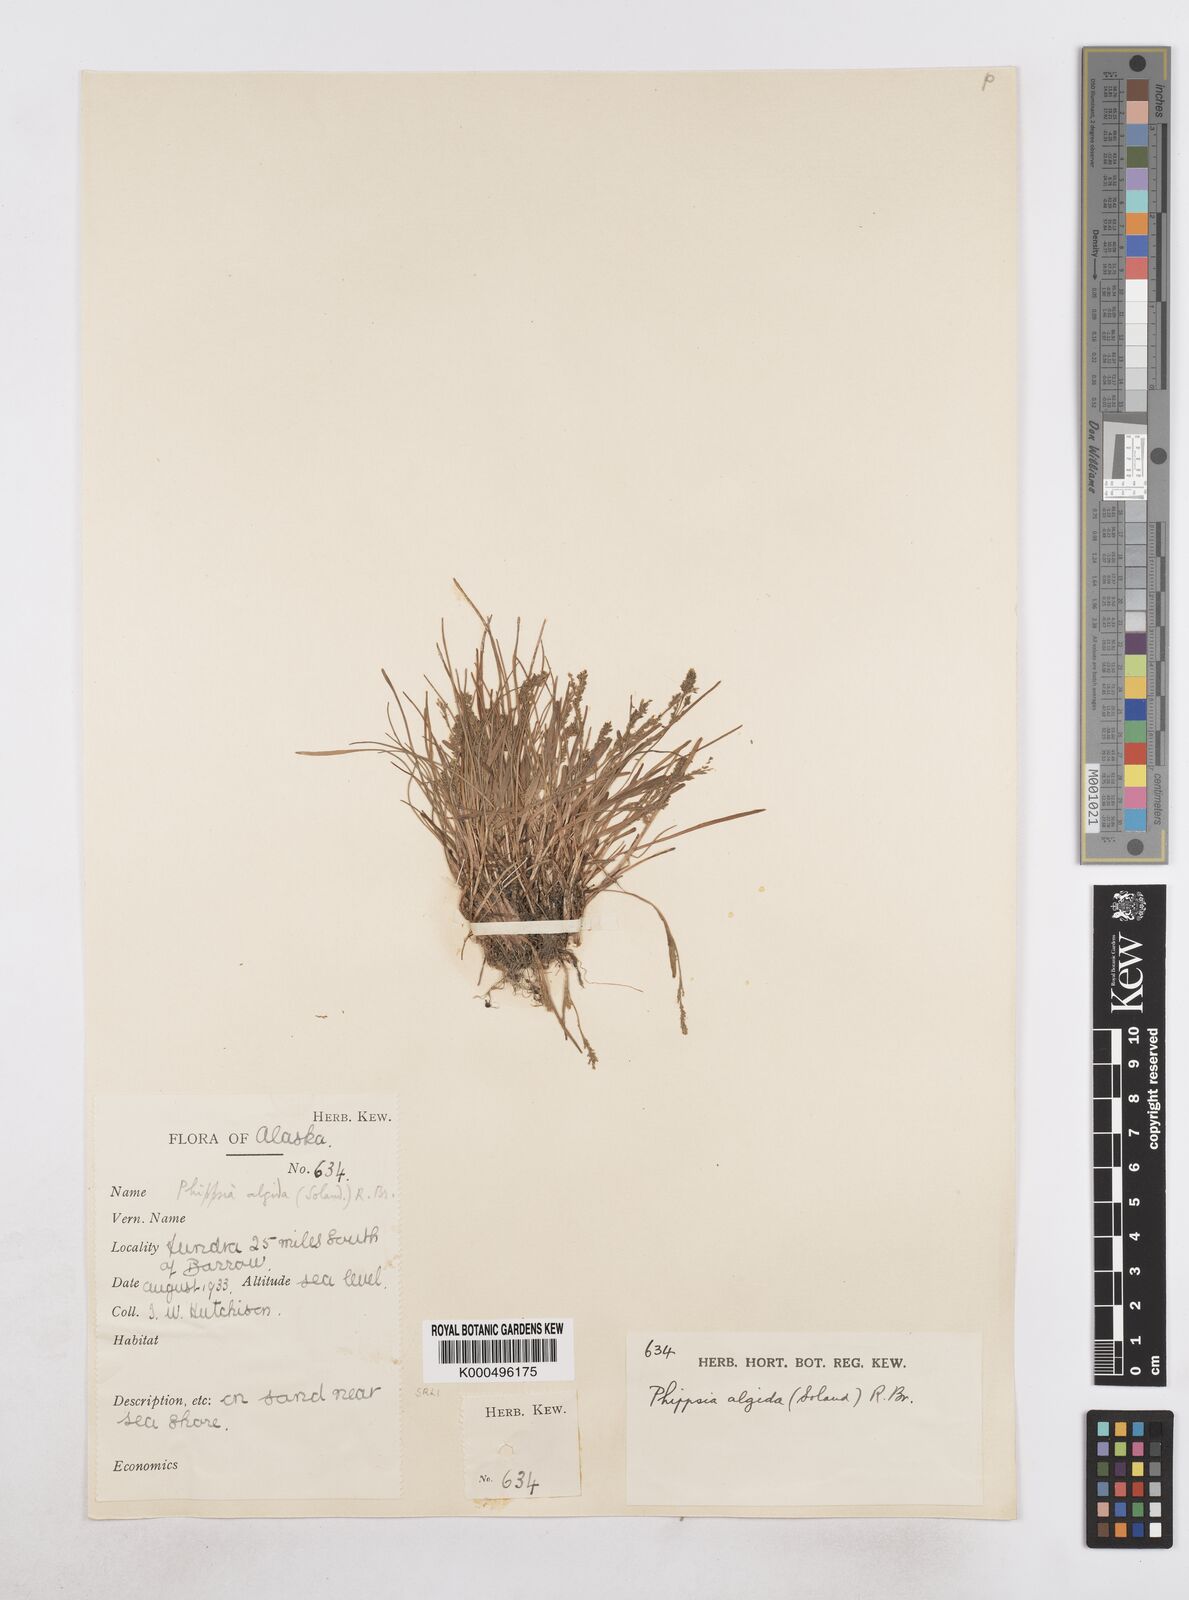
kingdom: Plantae
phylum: Tracheophyta
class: Liliopsida
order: Poales
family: Poaceae
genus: Phippsia
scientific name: Phippsia algida
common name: Ice grass
